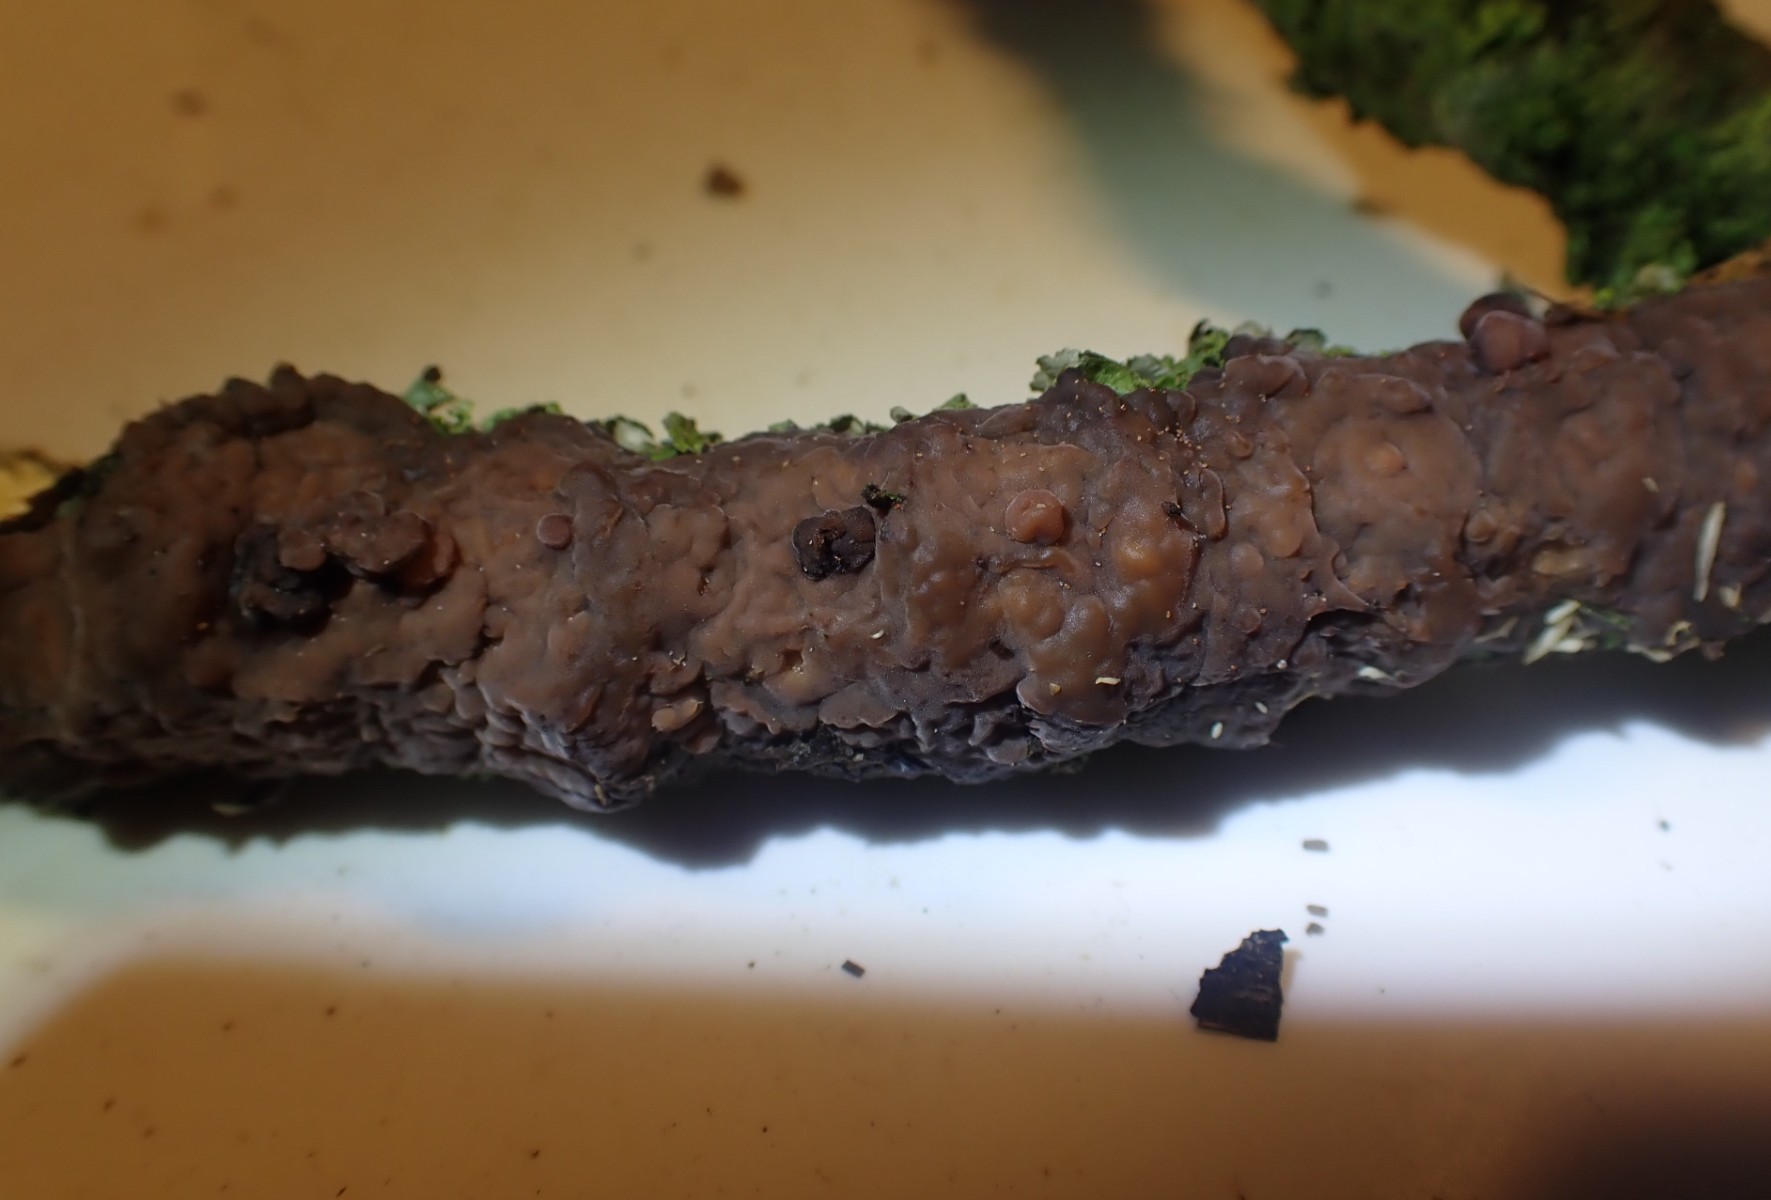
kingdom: Fungi
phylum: Basidiomycota
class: Agaricomycetes
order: Russulales
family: Peniophoraceae
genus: Peniophora
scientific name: Peniophora quercina
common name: ege-voksskind
